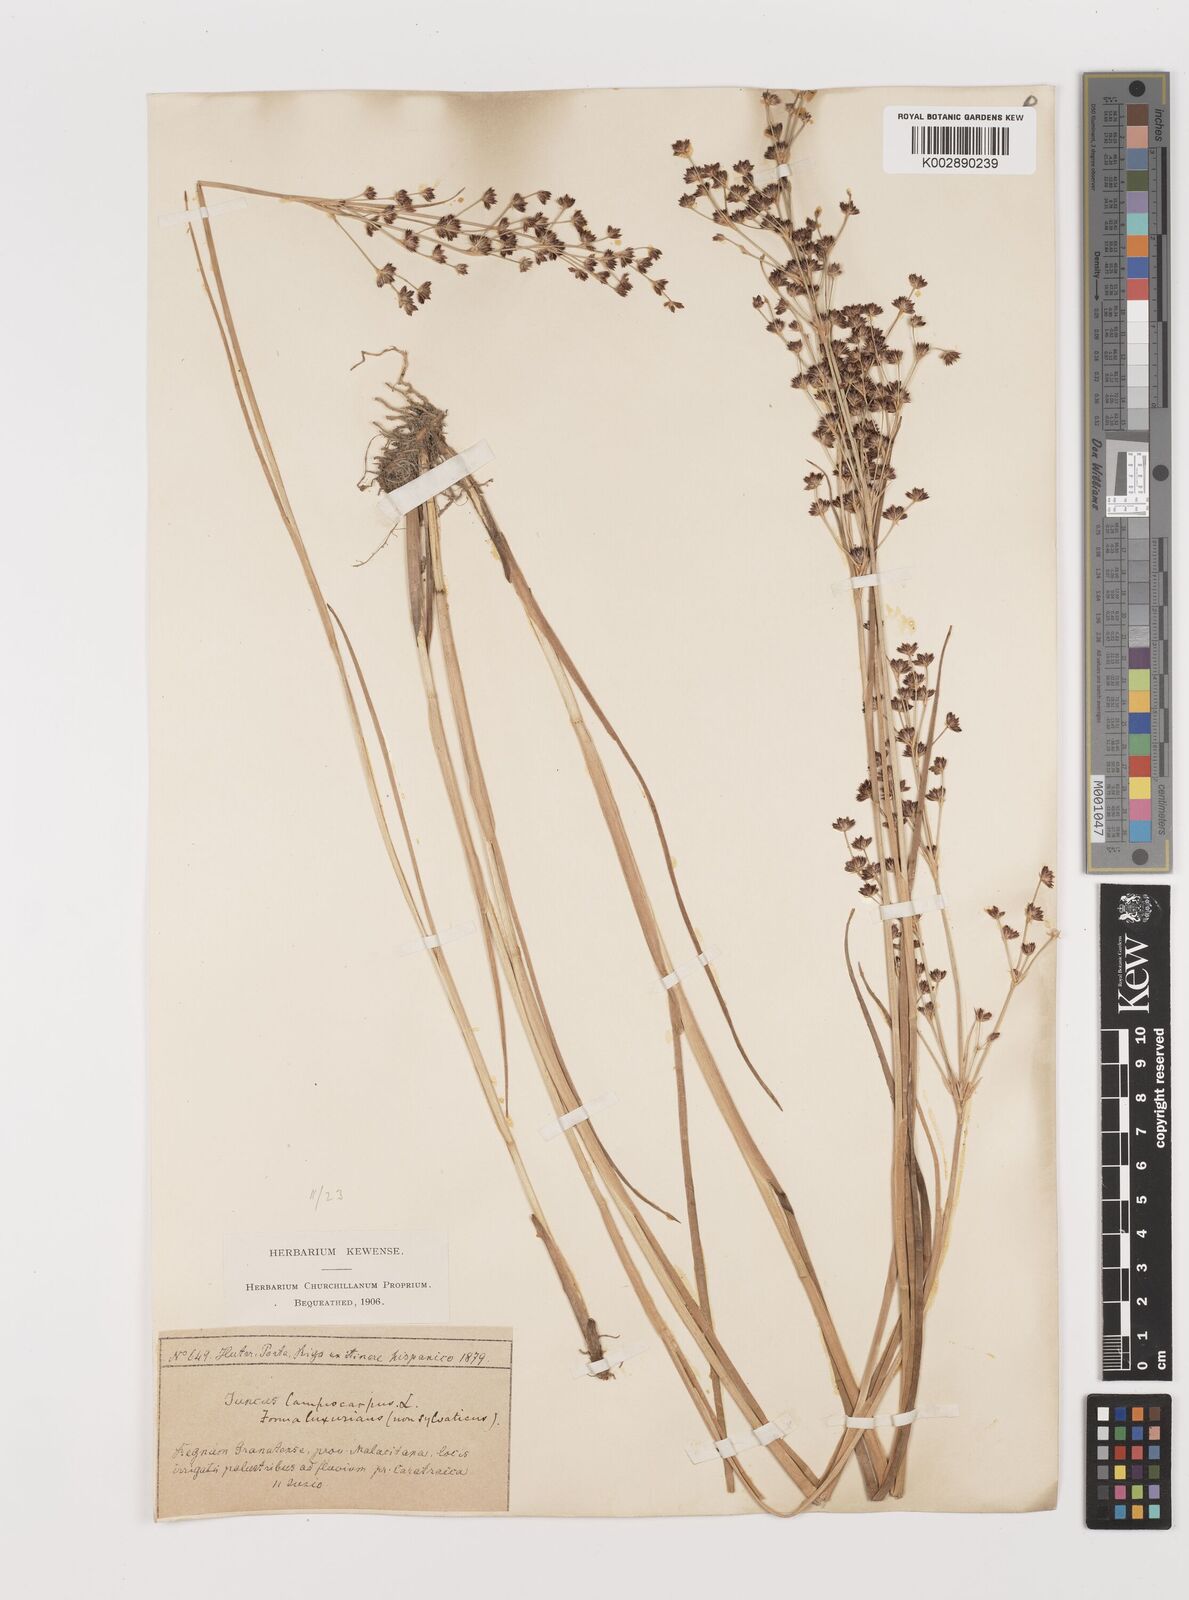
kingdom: Plantae
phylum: Tracheophyta
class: Liliopsida
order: Poales
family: Juncaceae
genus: Juncus
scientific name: Juncus articulatus
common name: Jointed rush
